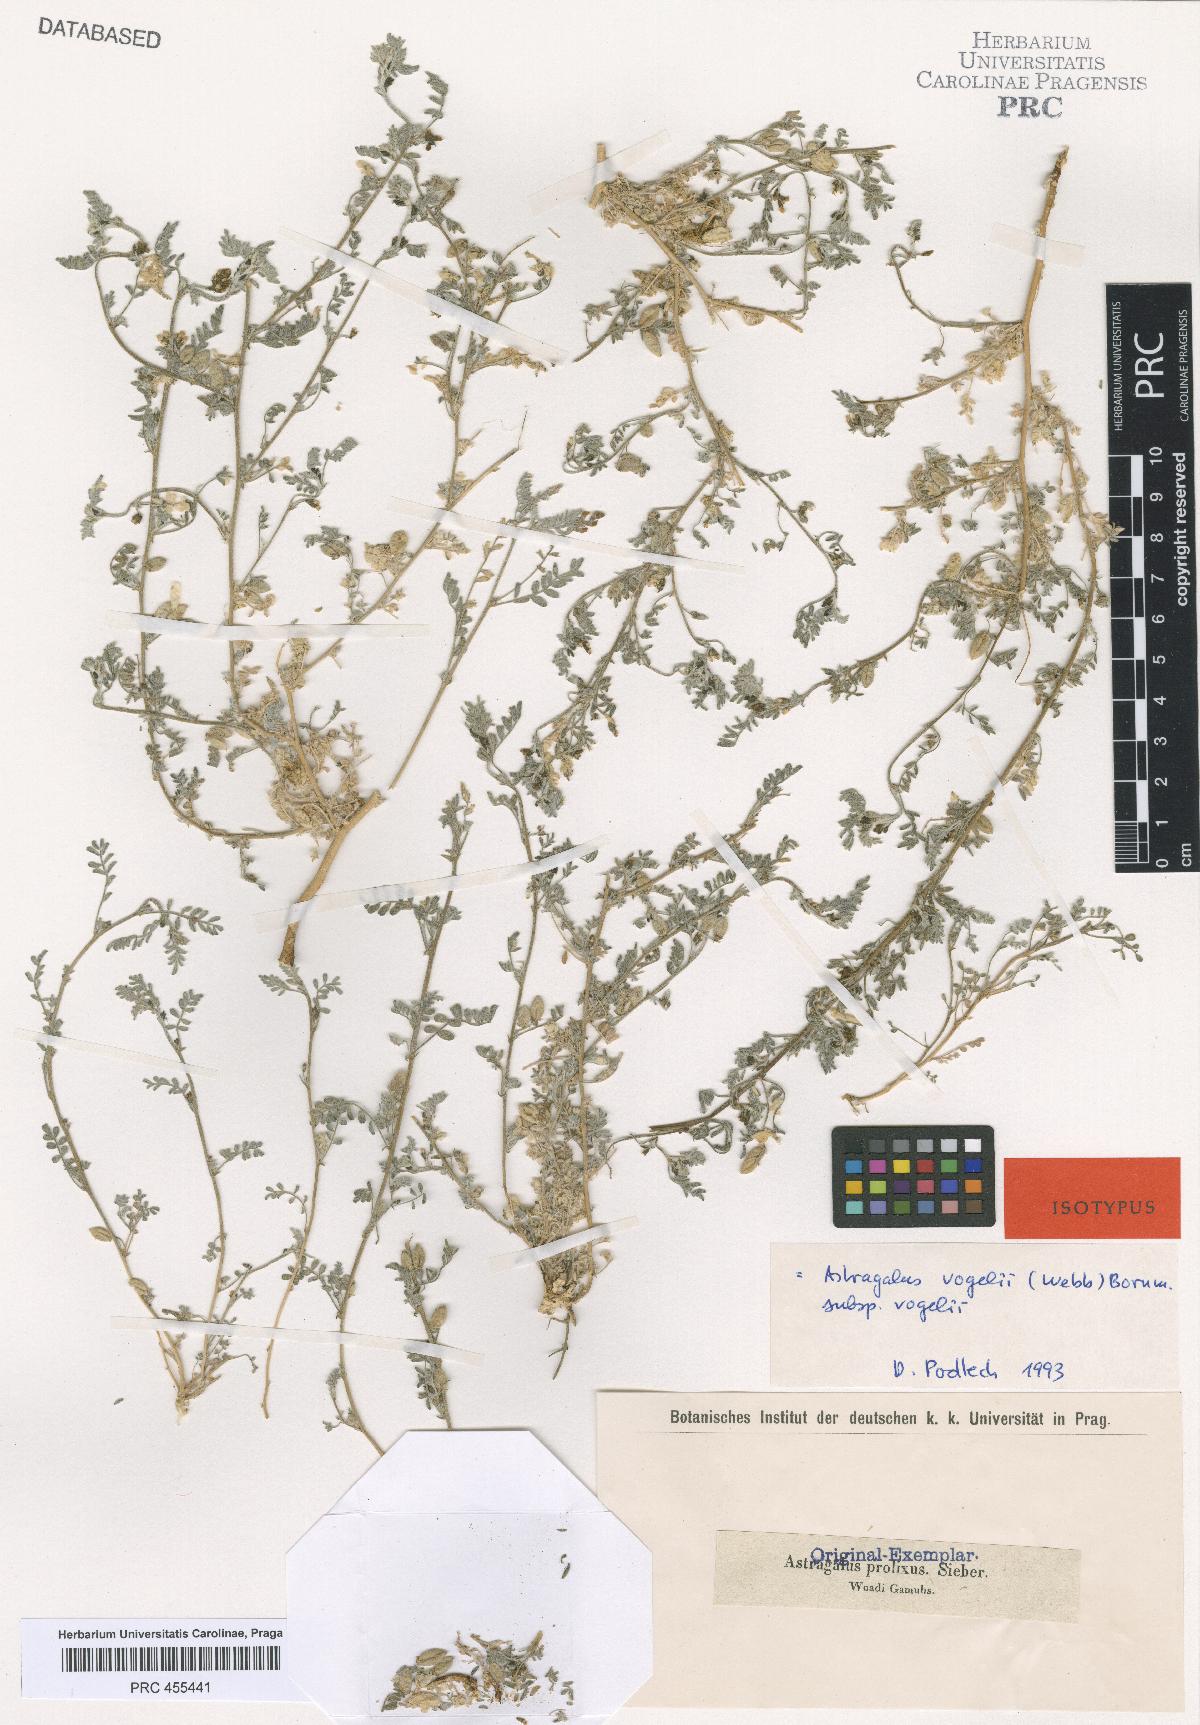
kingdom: Plantae
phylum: Tracheophyta
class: Magnoliopsida
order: Fabales
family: Fabaceae
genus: Astragalus
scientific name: Astragalus vogelii
